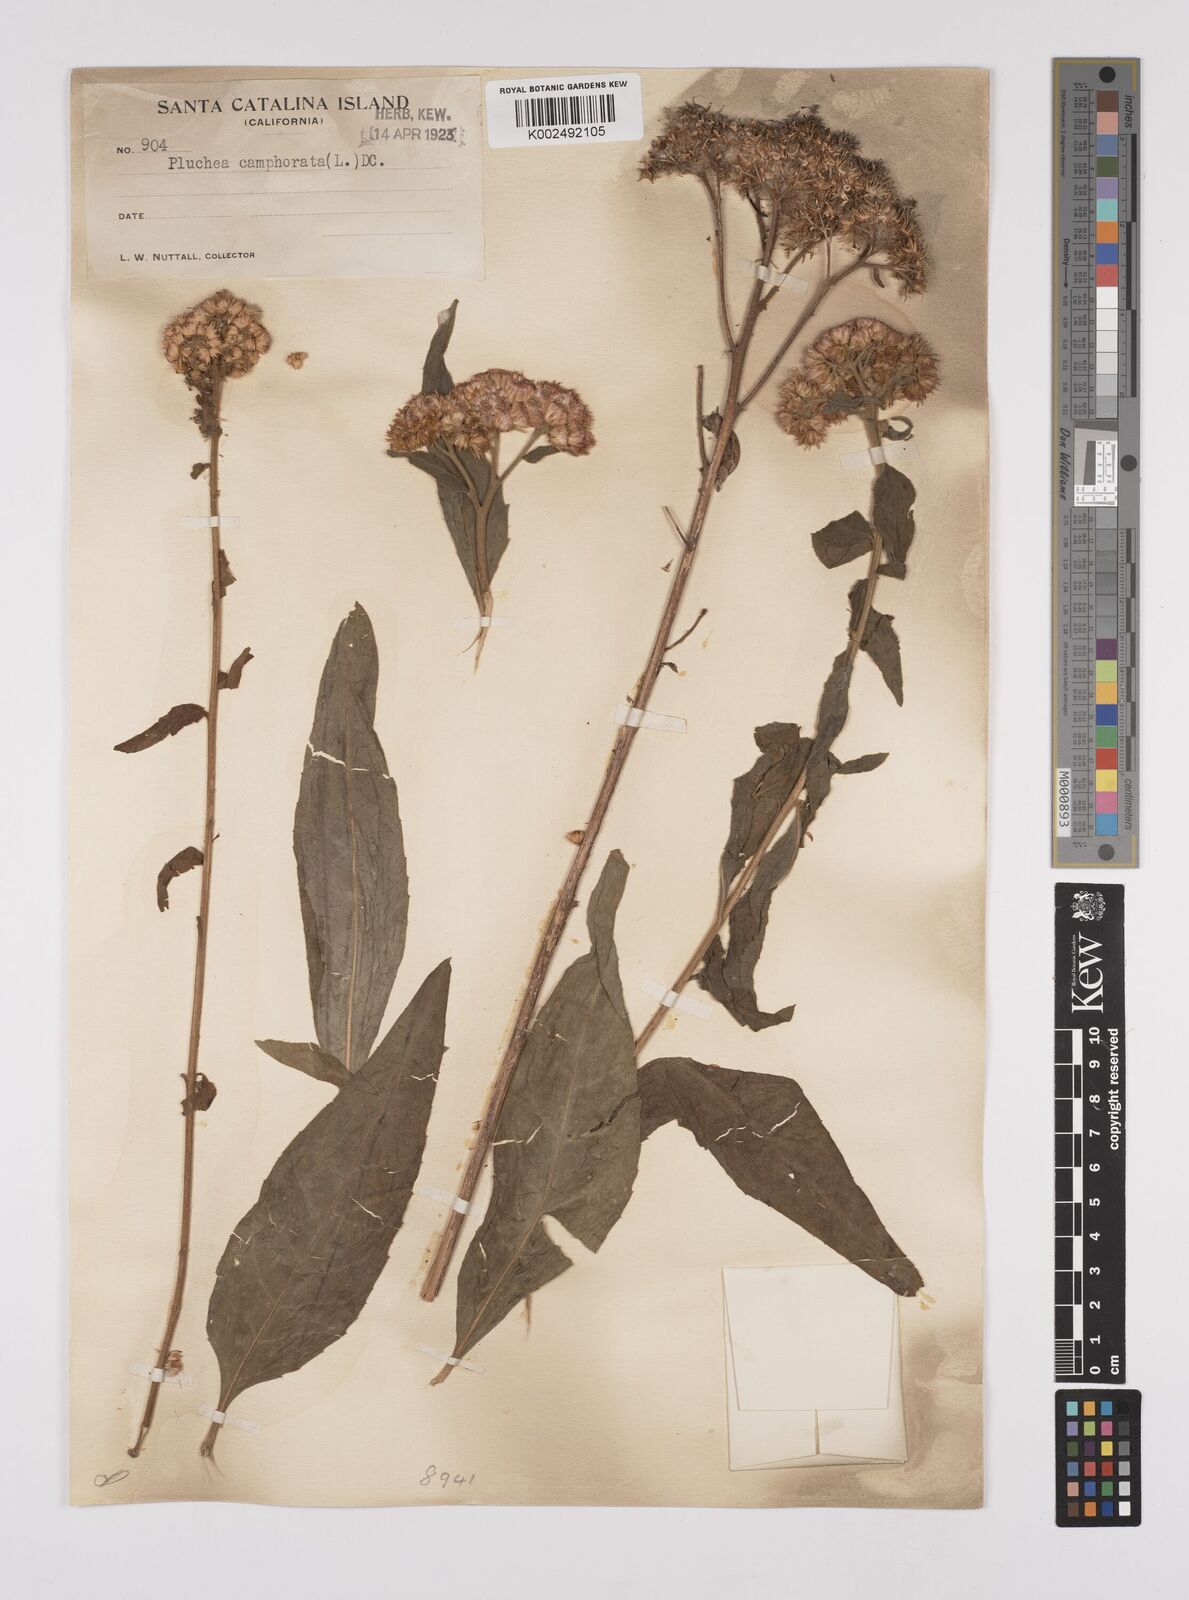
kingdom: Plantae
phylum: Tracheophyta
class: Magnoliopsida
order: Asterales
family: Asteraceae
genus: Pluchea
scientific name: Pluchea
